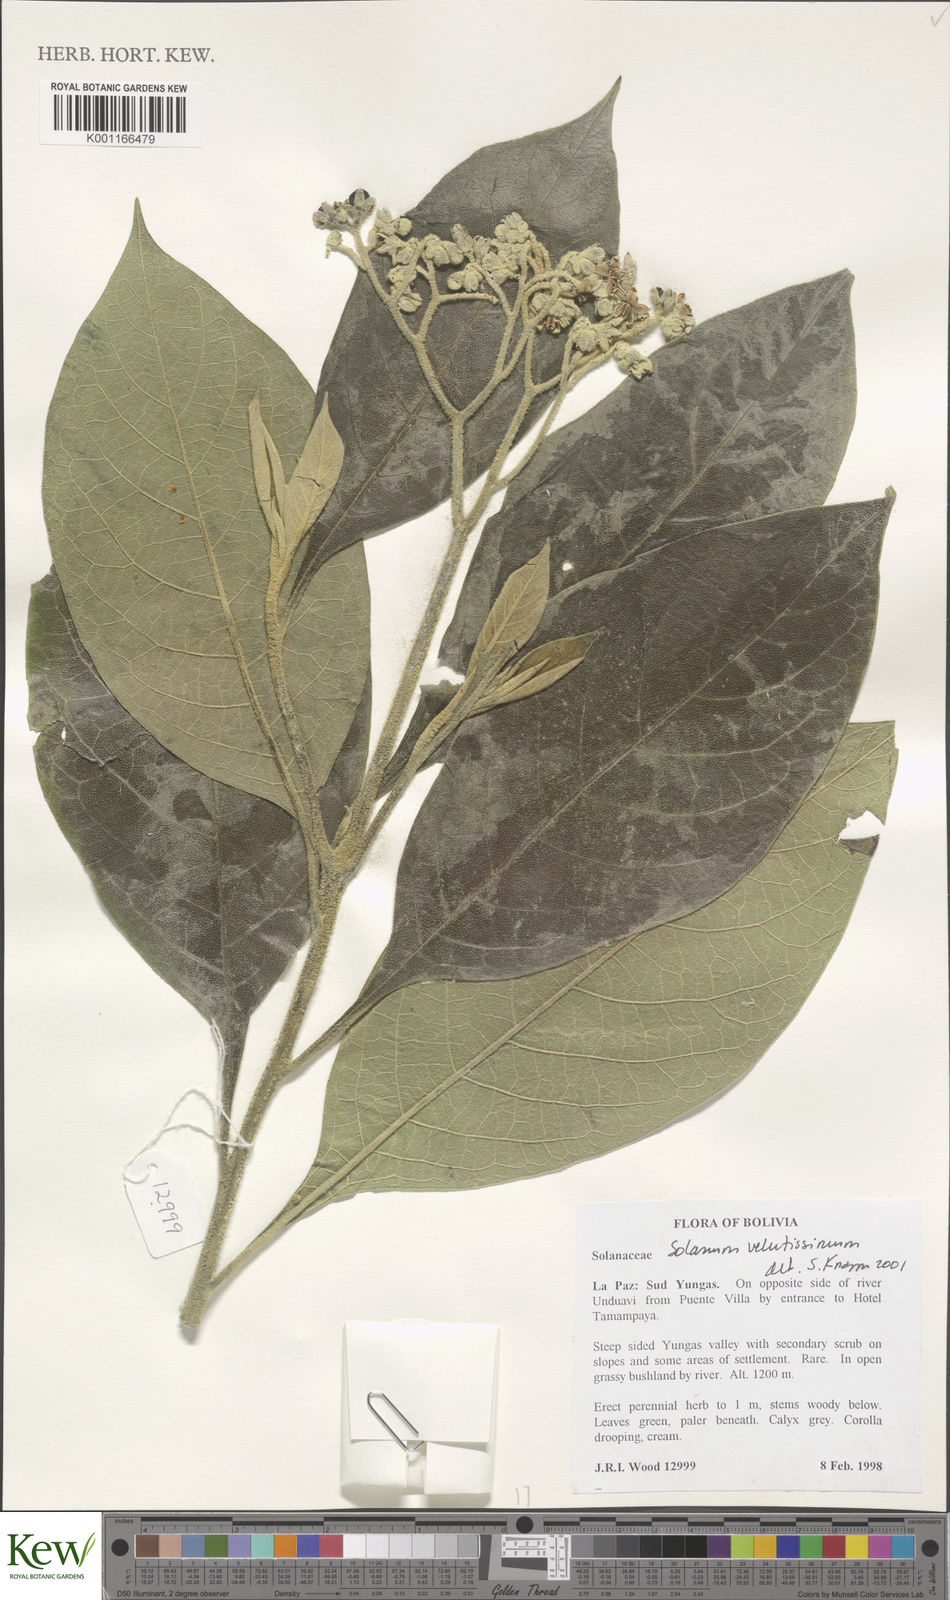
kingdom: Plantae
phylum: Tracheophyta
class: Magnoliopsida
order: Solanales
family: Solanaceae
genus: Solanum
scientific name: Solanum velutissimum
